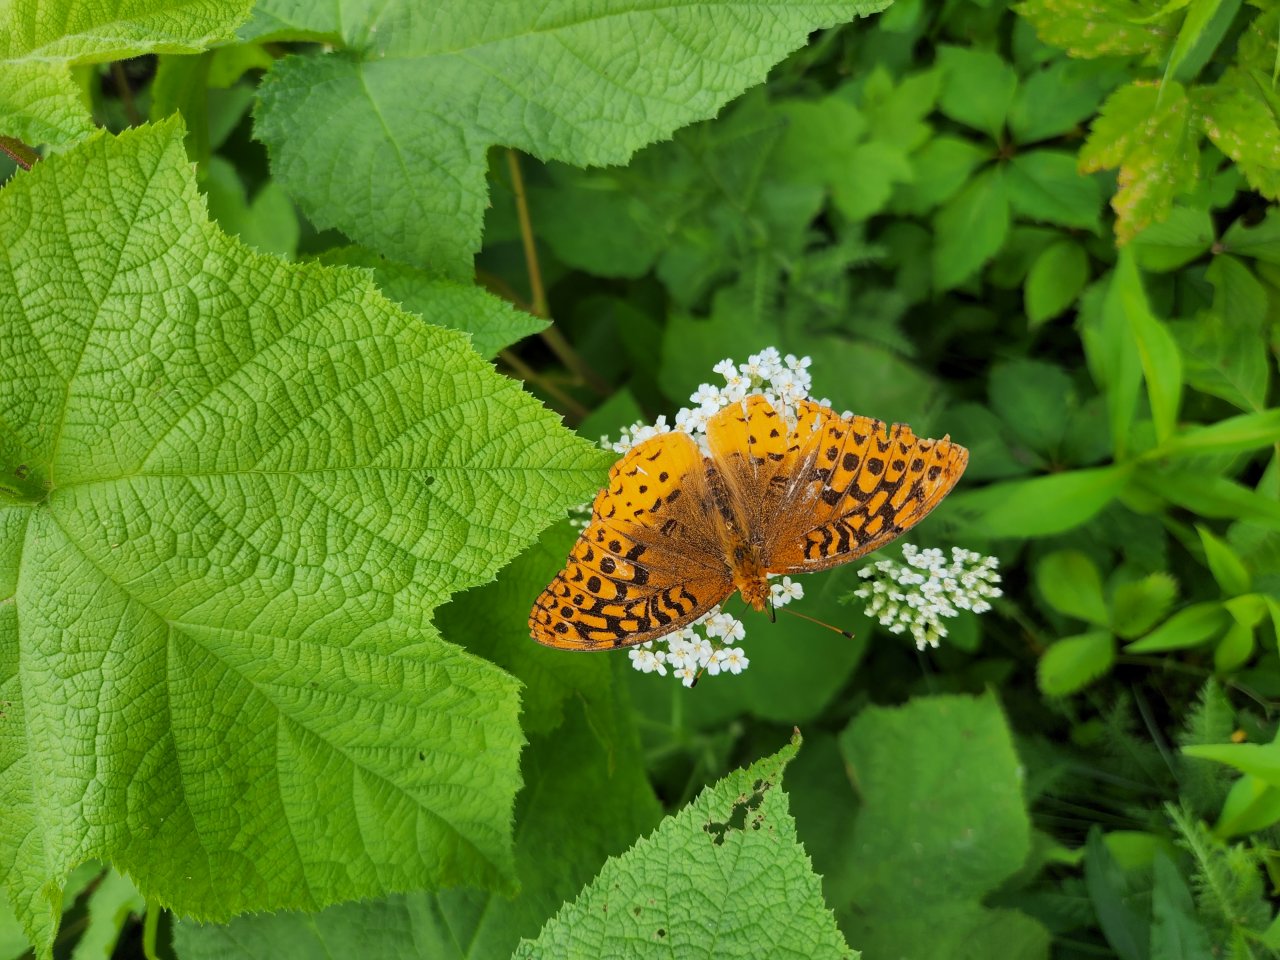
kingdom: Animalia
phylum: Arthropoda
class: Insecta
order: Lepidoptera
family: Nymphalidae
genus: Speyeria
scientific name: Speyeria cybele
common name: Great Spangled Fritillary
